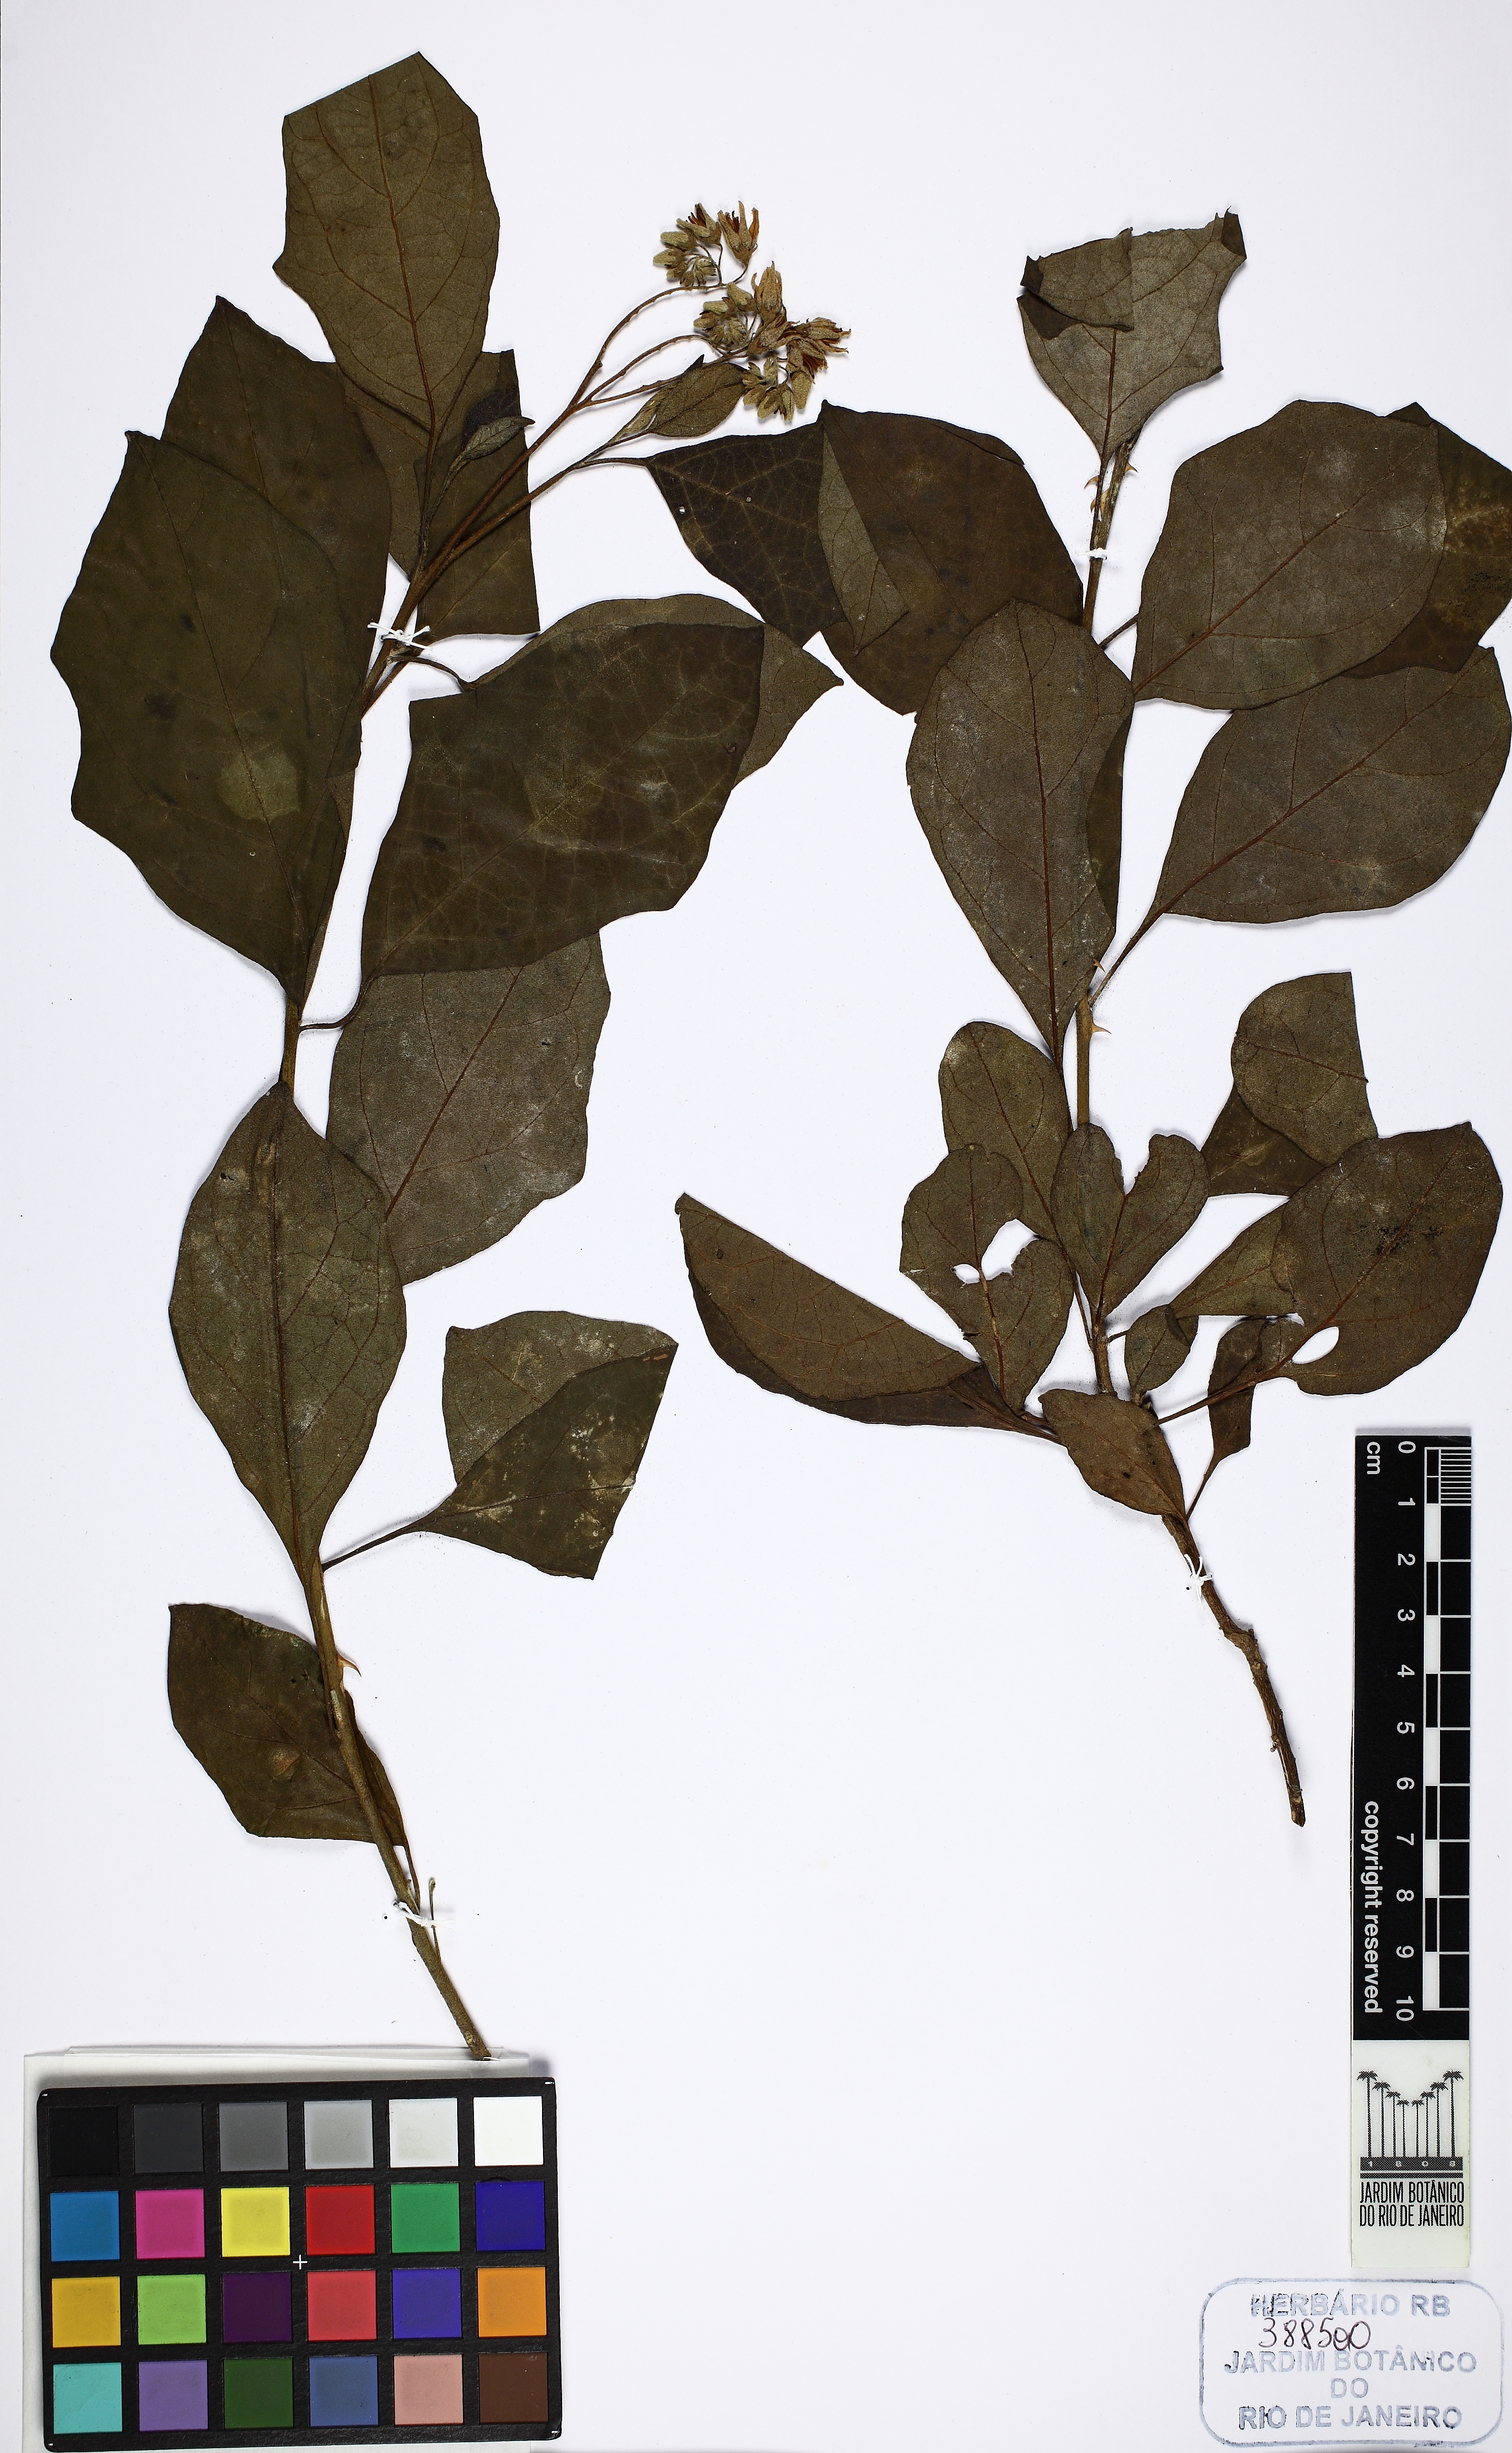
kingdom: Plantae
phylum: Tracheophyta
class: Magnoliopsida
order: Solanales
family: Solanaceae
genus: Solanum
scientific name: Solanum insidiosum
